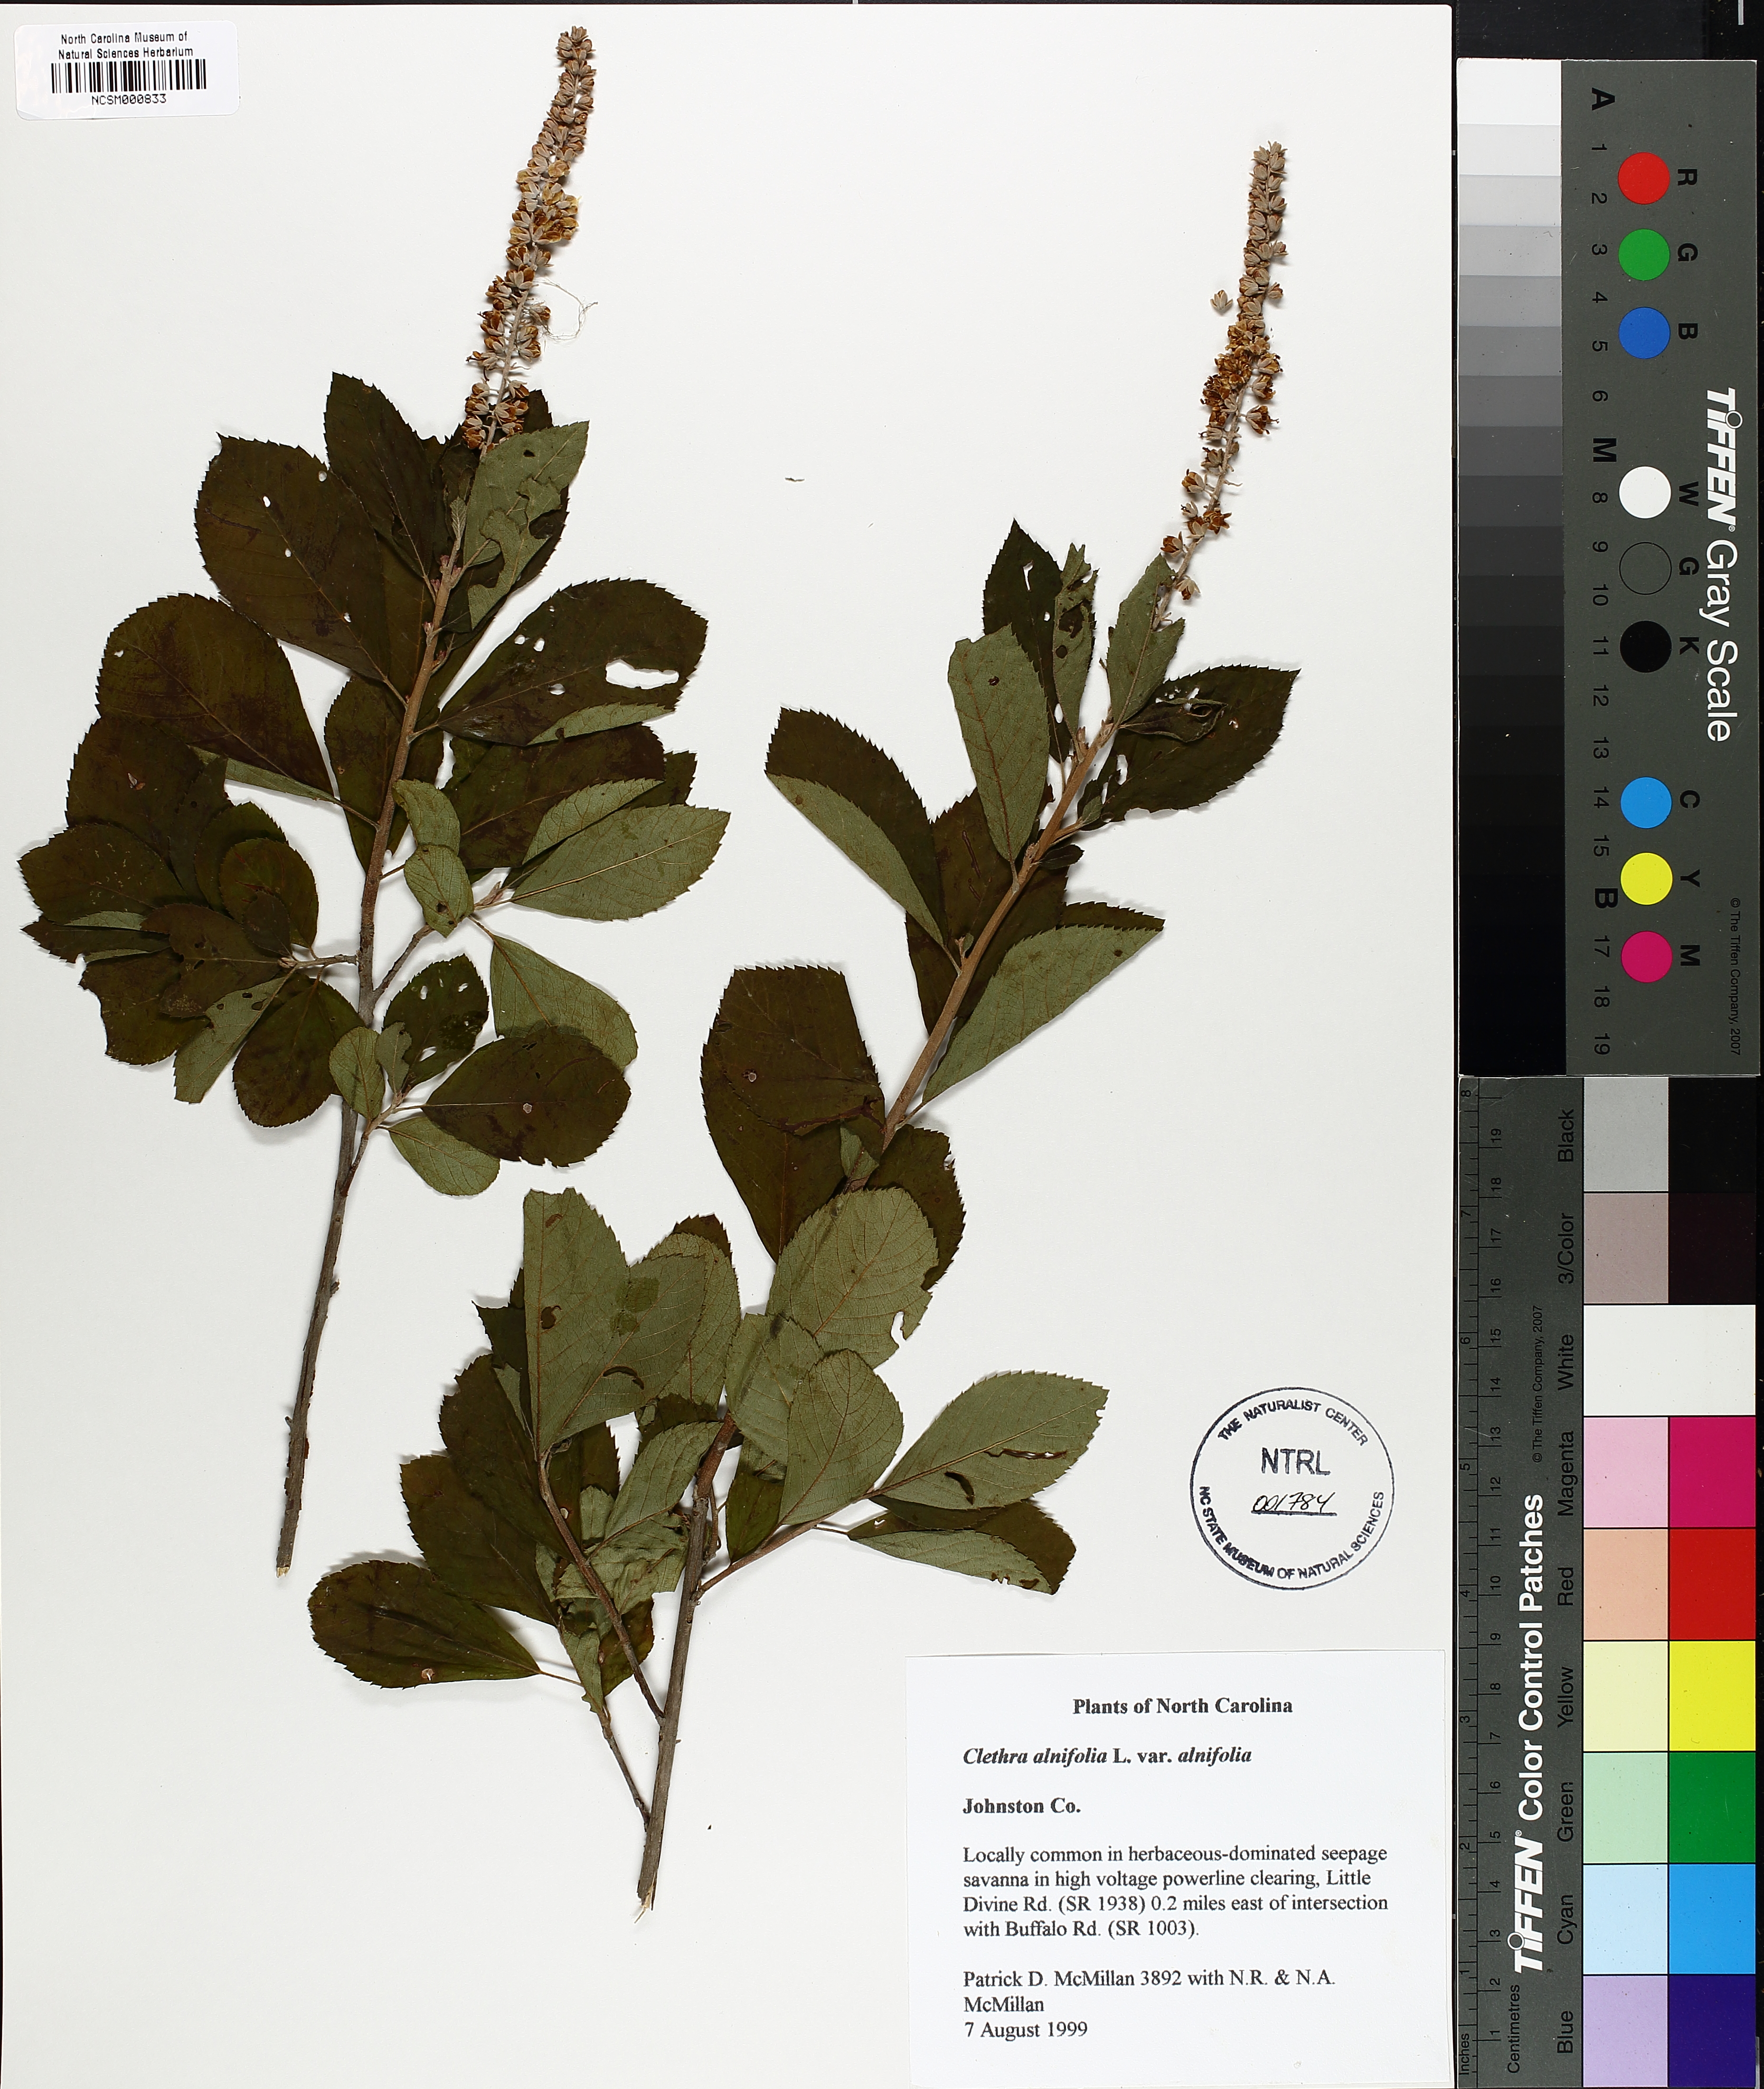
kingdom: Plantae
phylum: Tracheophyta
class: Magnoliopsida
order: Ericales
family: Clethraceae
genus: Clethra
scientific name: Clethra alnifolia
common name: Sweet pepperbush
